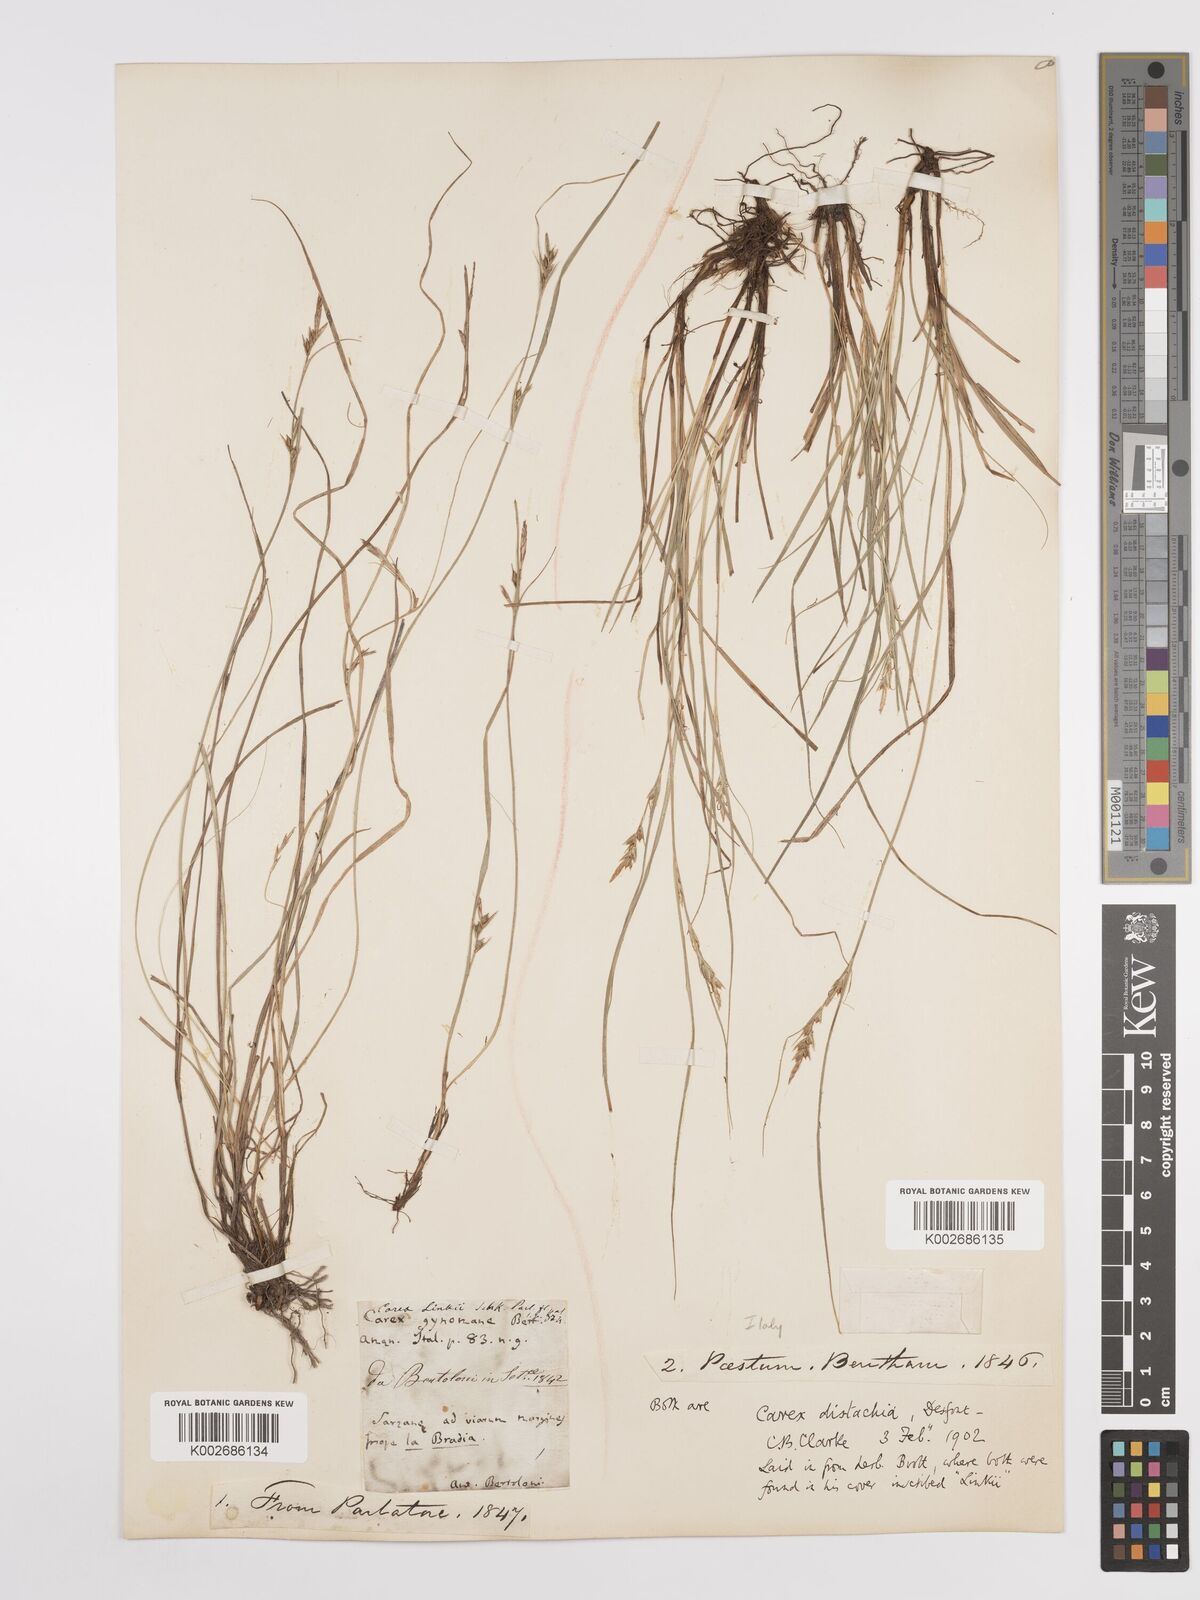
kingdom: Plantae
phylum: Tracheophyta
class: Liliopsida
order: Poales
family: Cyperaceae
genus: Carex
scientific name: Carex distachya
